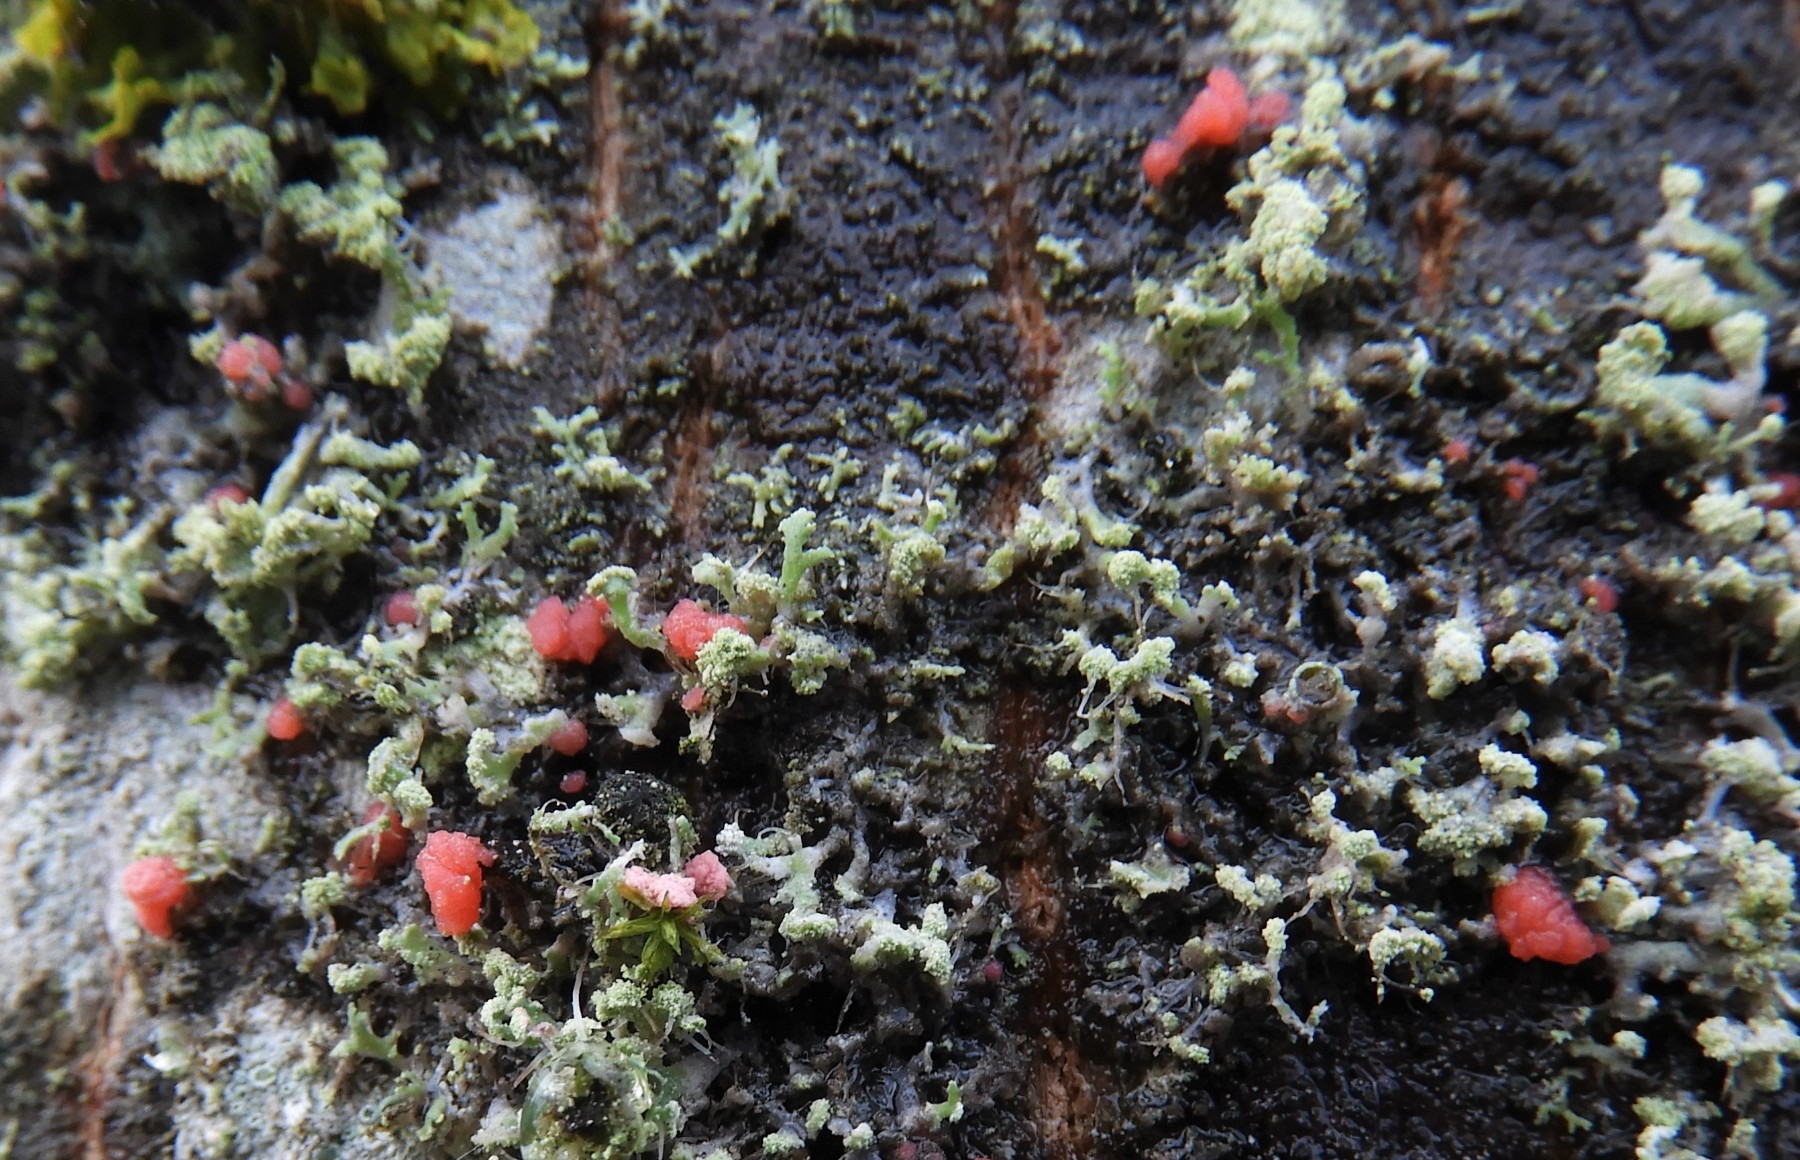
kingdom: Fungi
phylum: Ascomycota
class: Sordariomycetes
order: Hypocreales
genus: Illosporiopsis
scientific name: Illosporiopsis christiansenii
